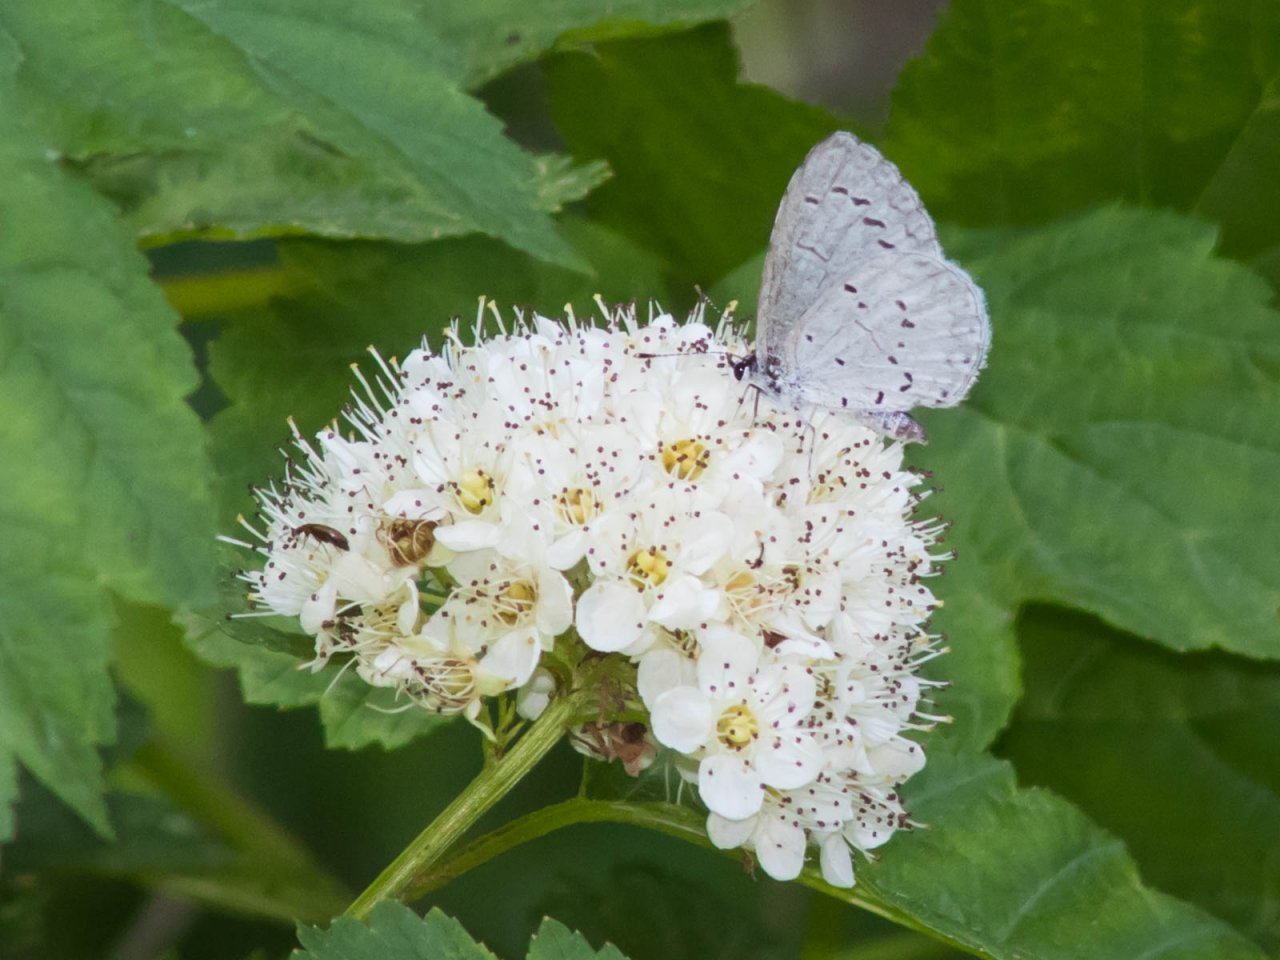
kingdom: Animalia
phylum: Arthropoda
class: Insecta
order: Lepidoptera
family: Lycaenidae
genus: Cyaniris
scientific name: Cyaniris neglecta
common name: Summer Azure
